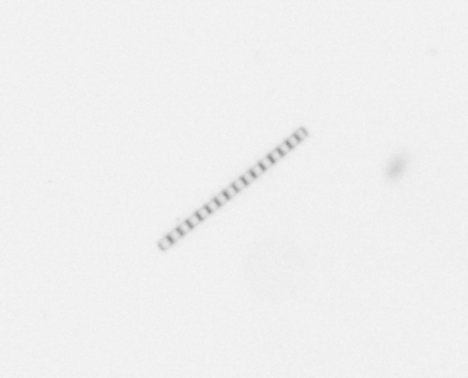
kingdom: Chromista
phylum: Ochrophyta
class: Bacillariophyceae
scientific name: Bacillariophyceae
